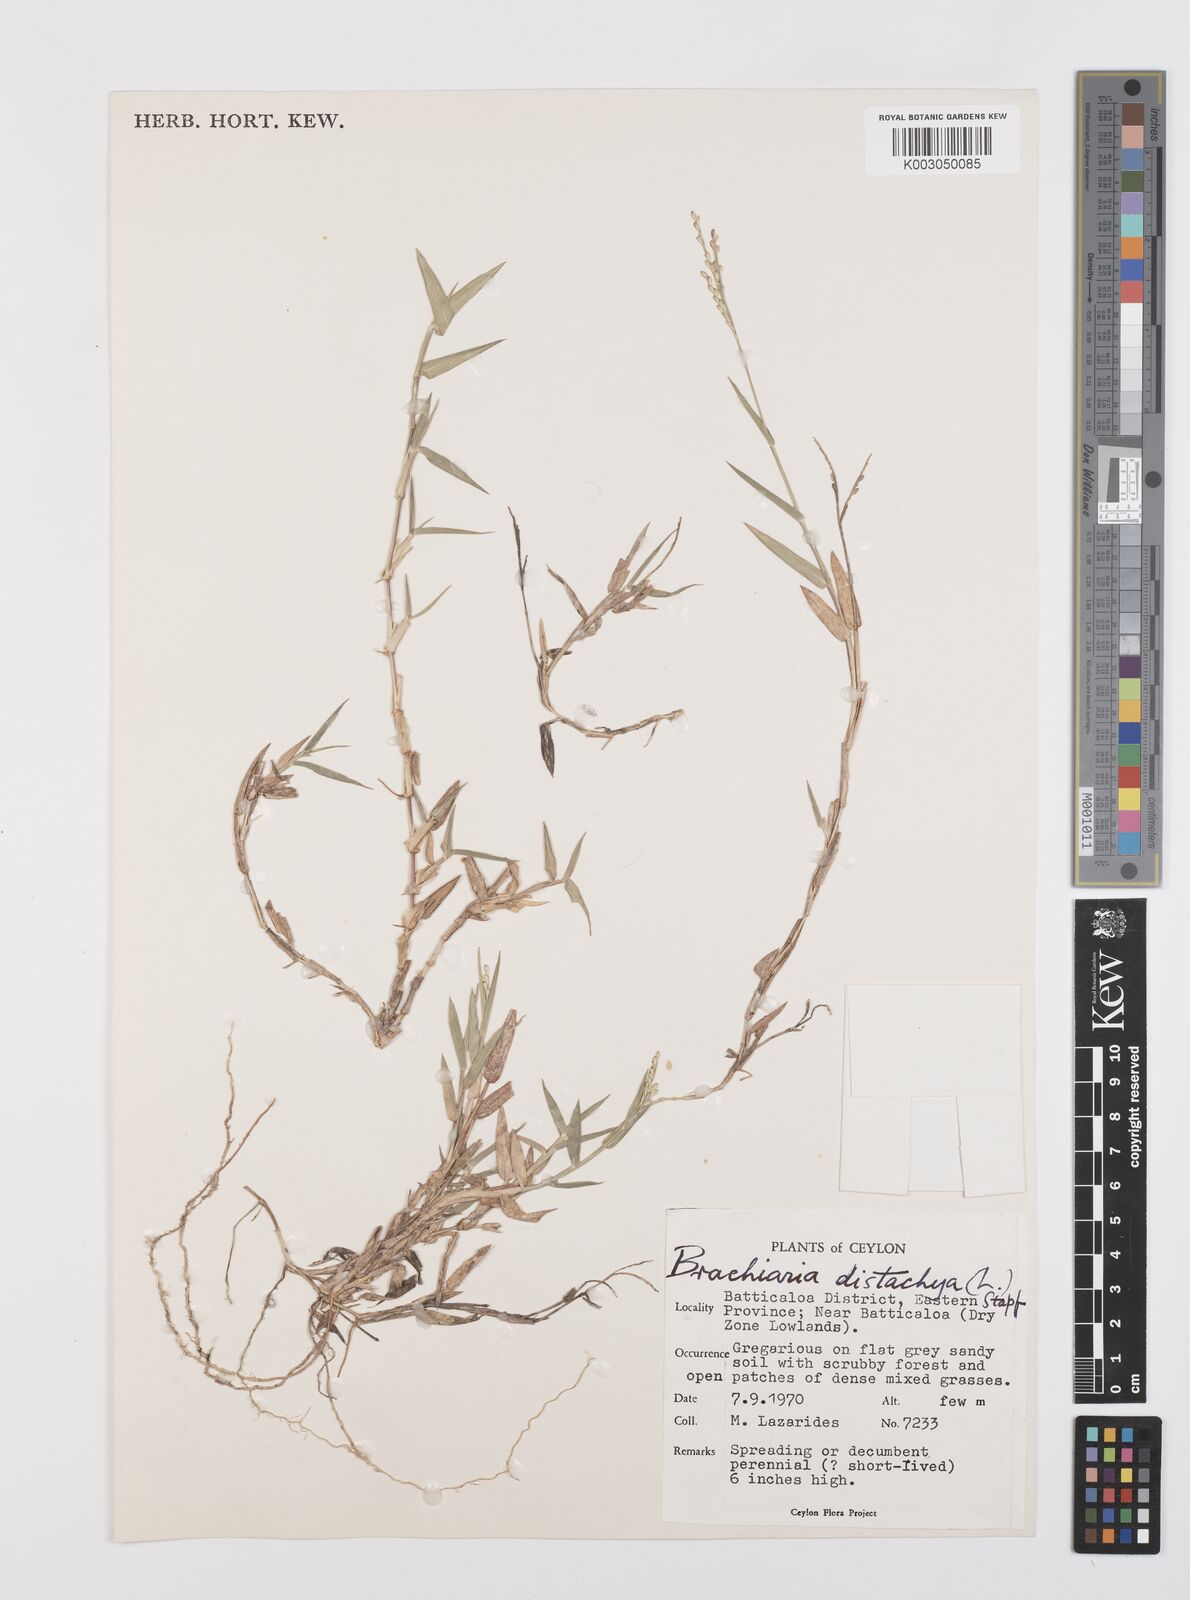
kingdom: Plantae
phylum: Tracheophyta
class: Liliopsida
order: Poales
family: Poaceae
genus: Urochloa
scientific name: Urochloa distachyos
